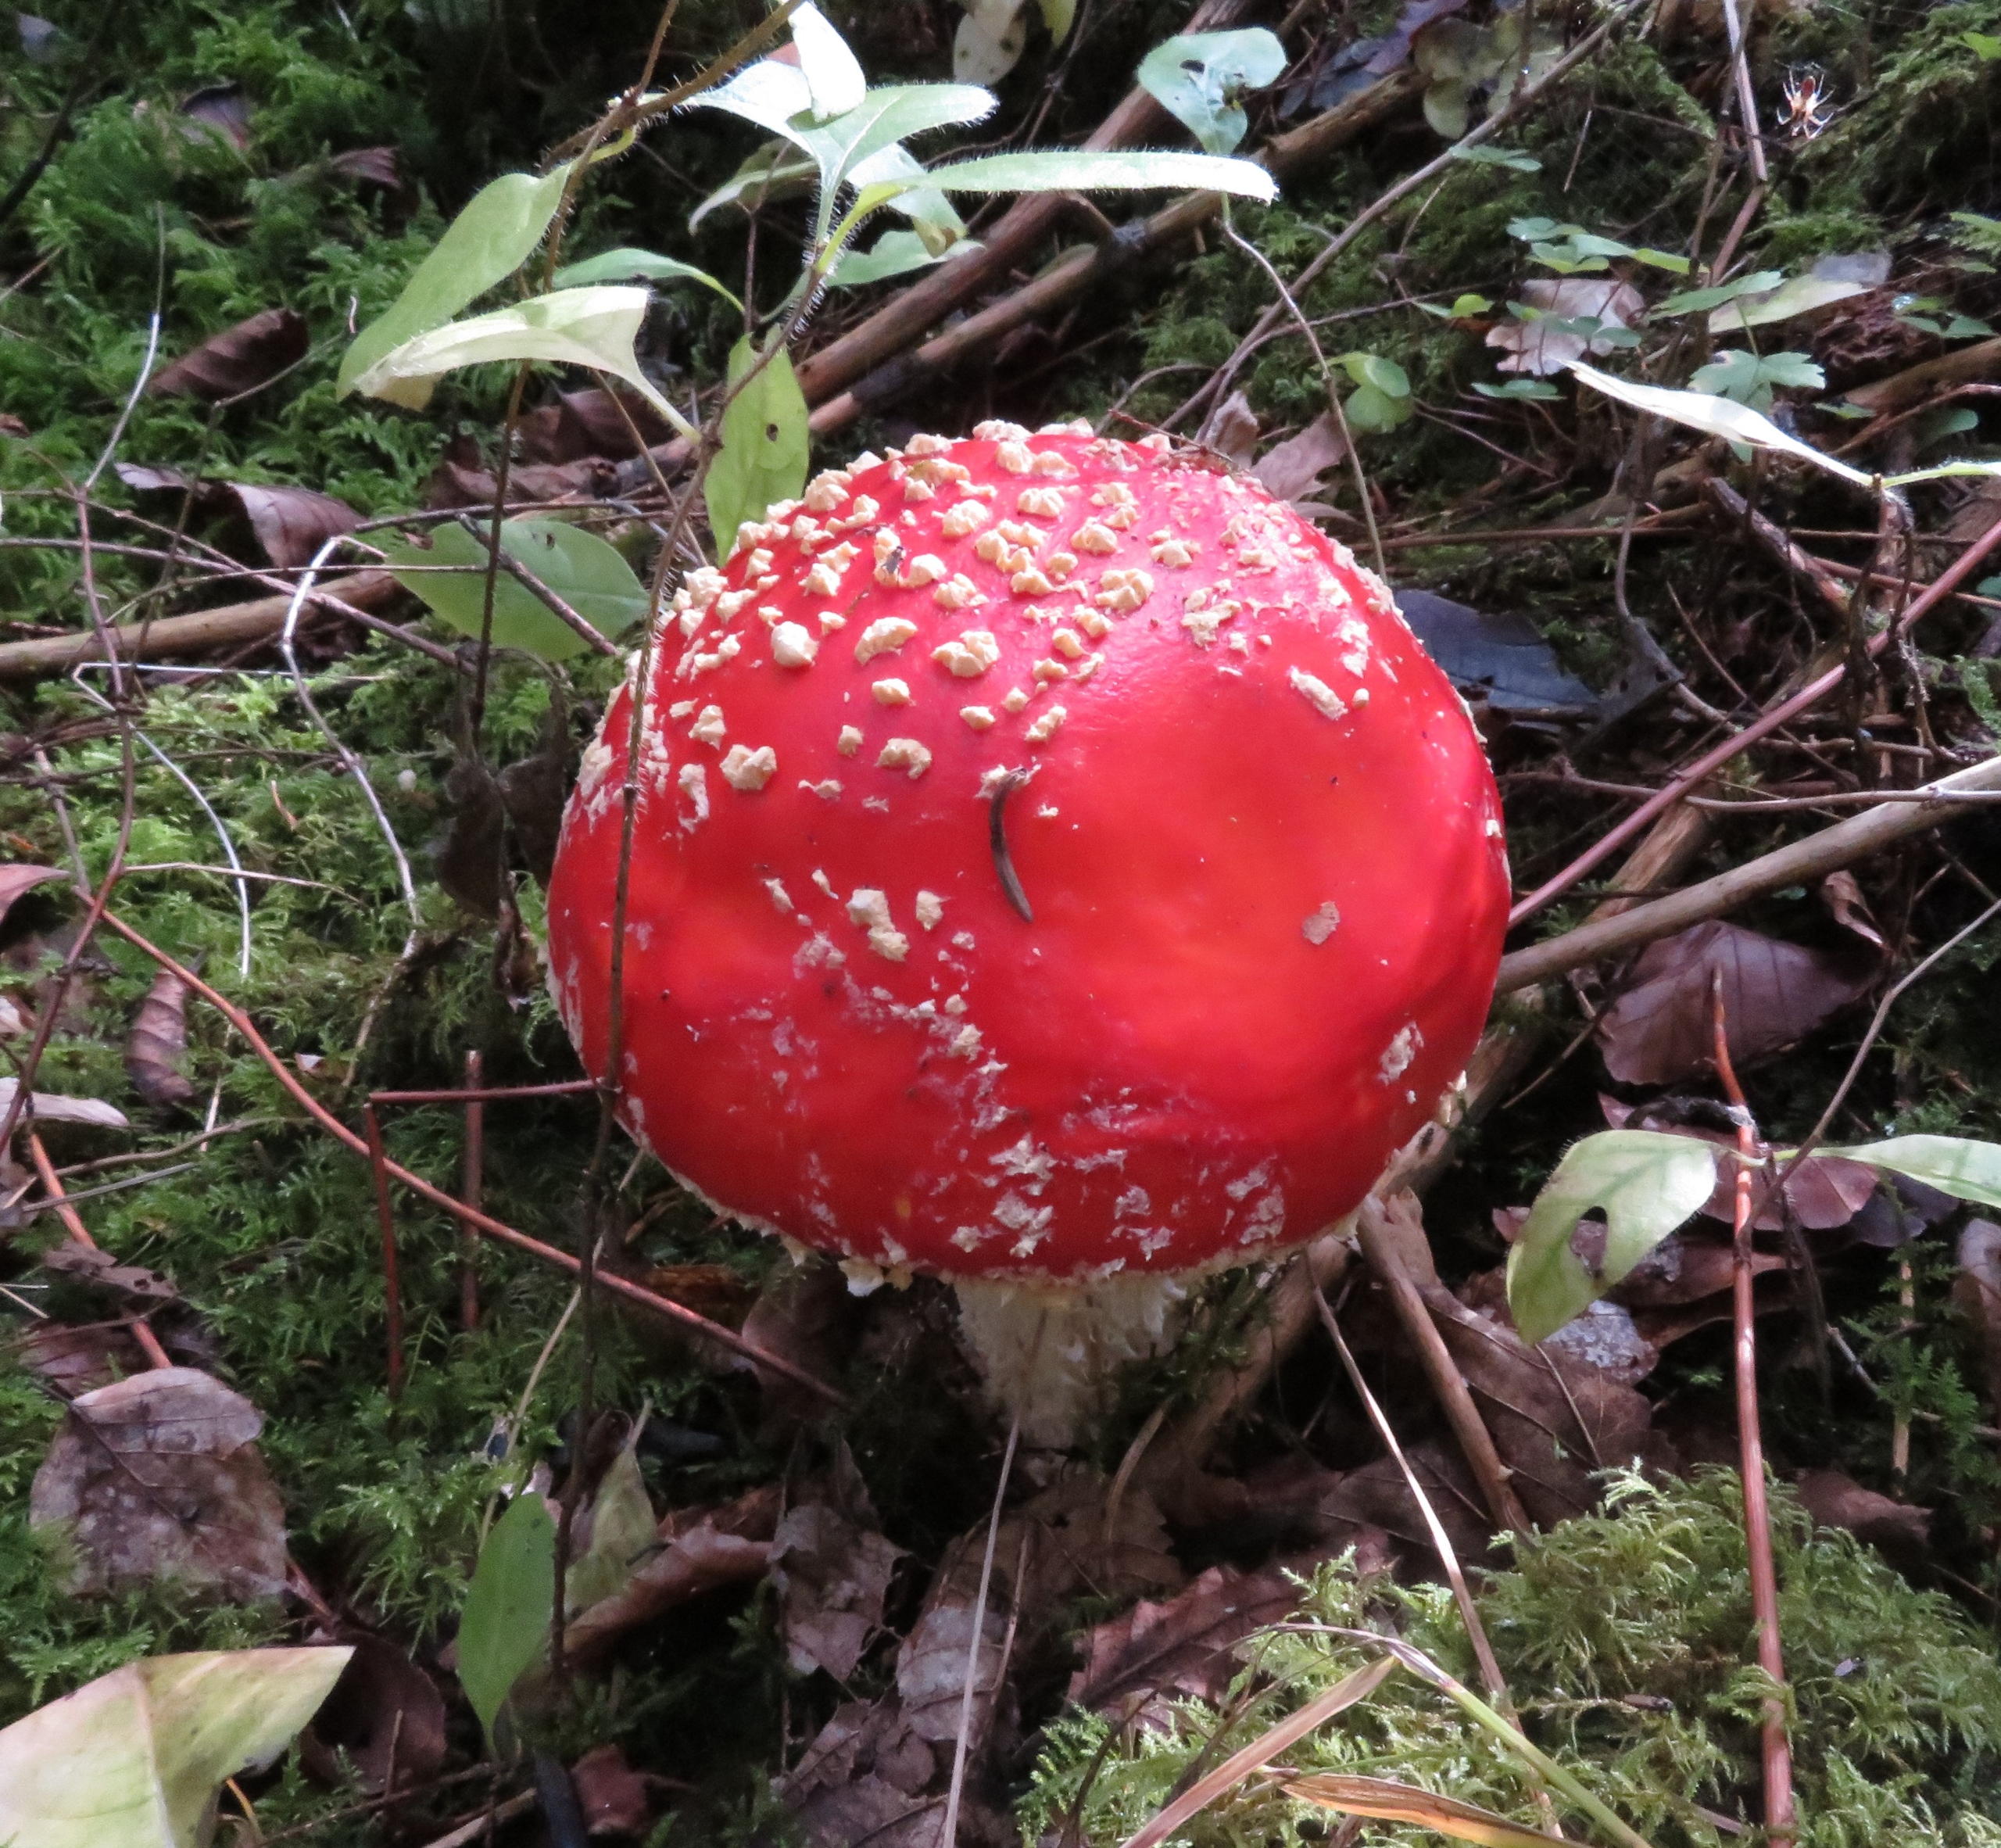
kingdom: Fungi
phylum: Basidiomycota
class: Agaricomycetes
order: Agaricales
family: Amanitaceae
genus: Amanita
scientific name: Amanita muscaria
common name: Rød fluesvamp
